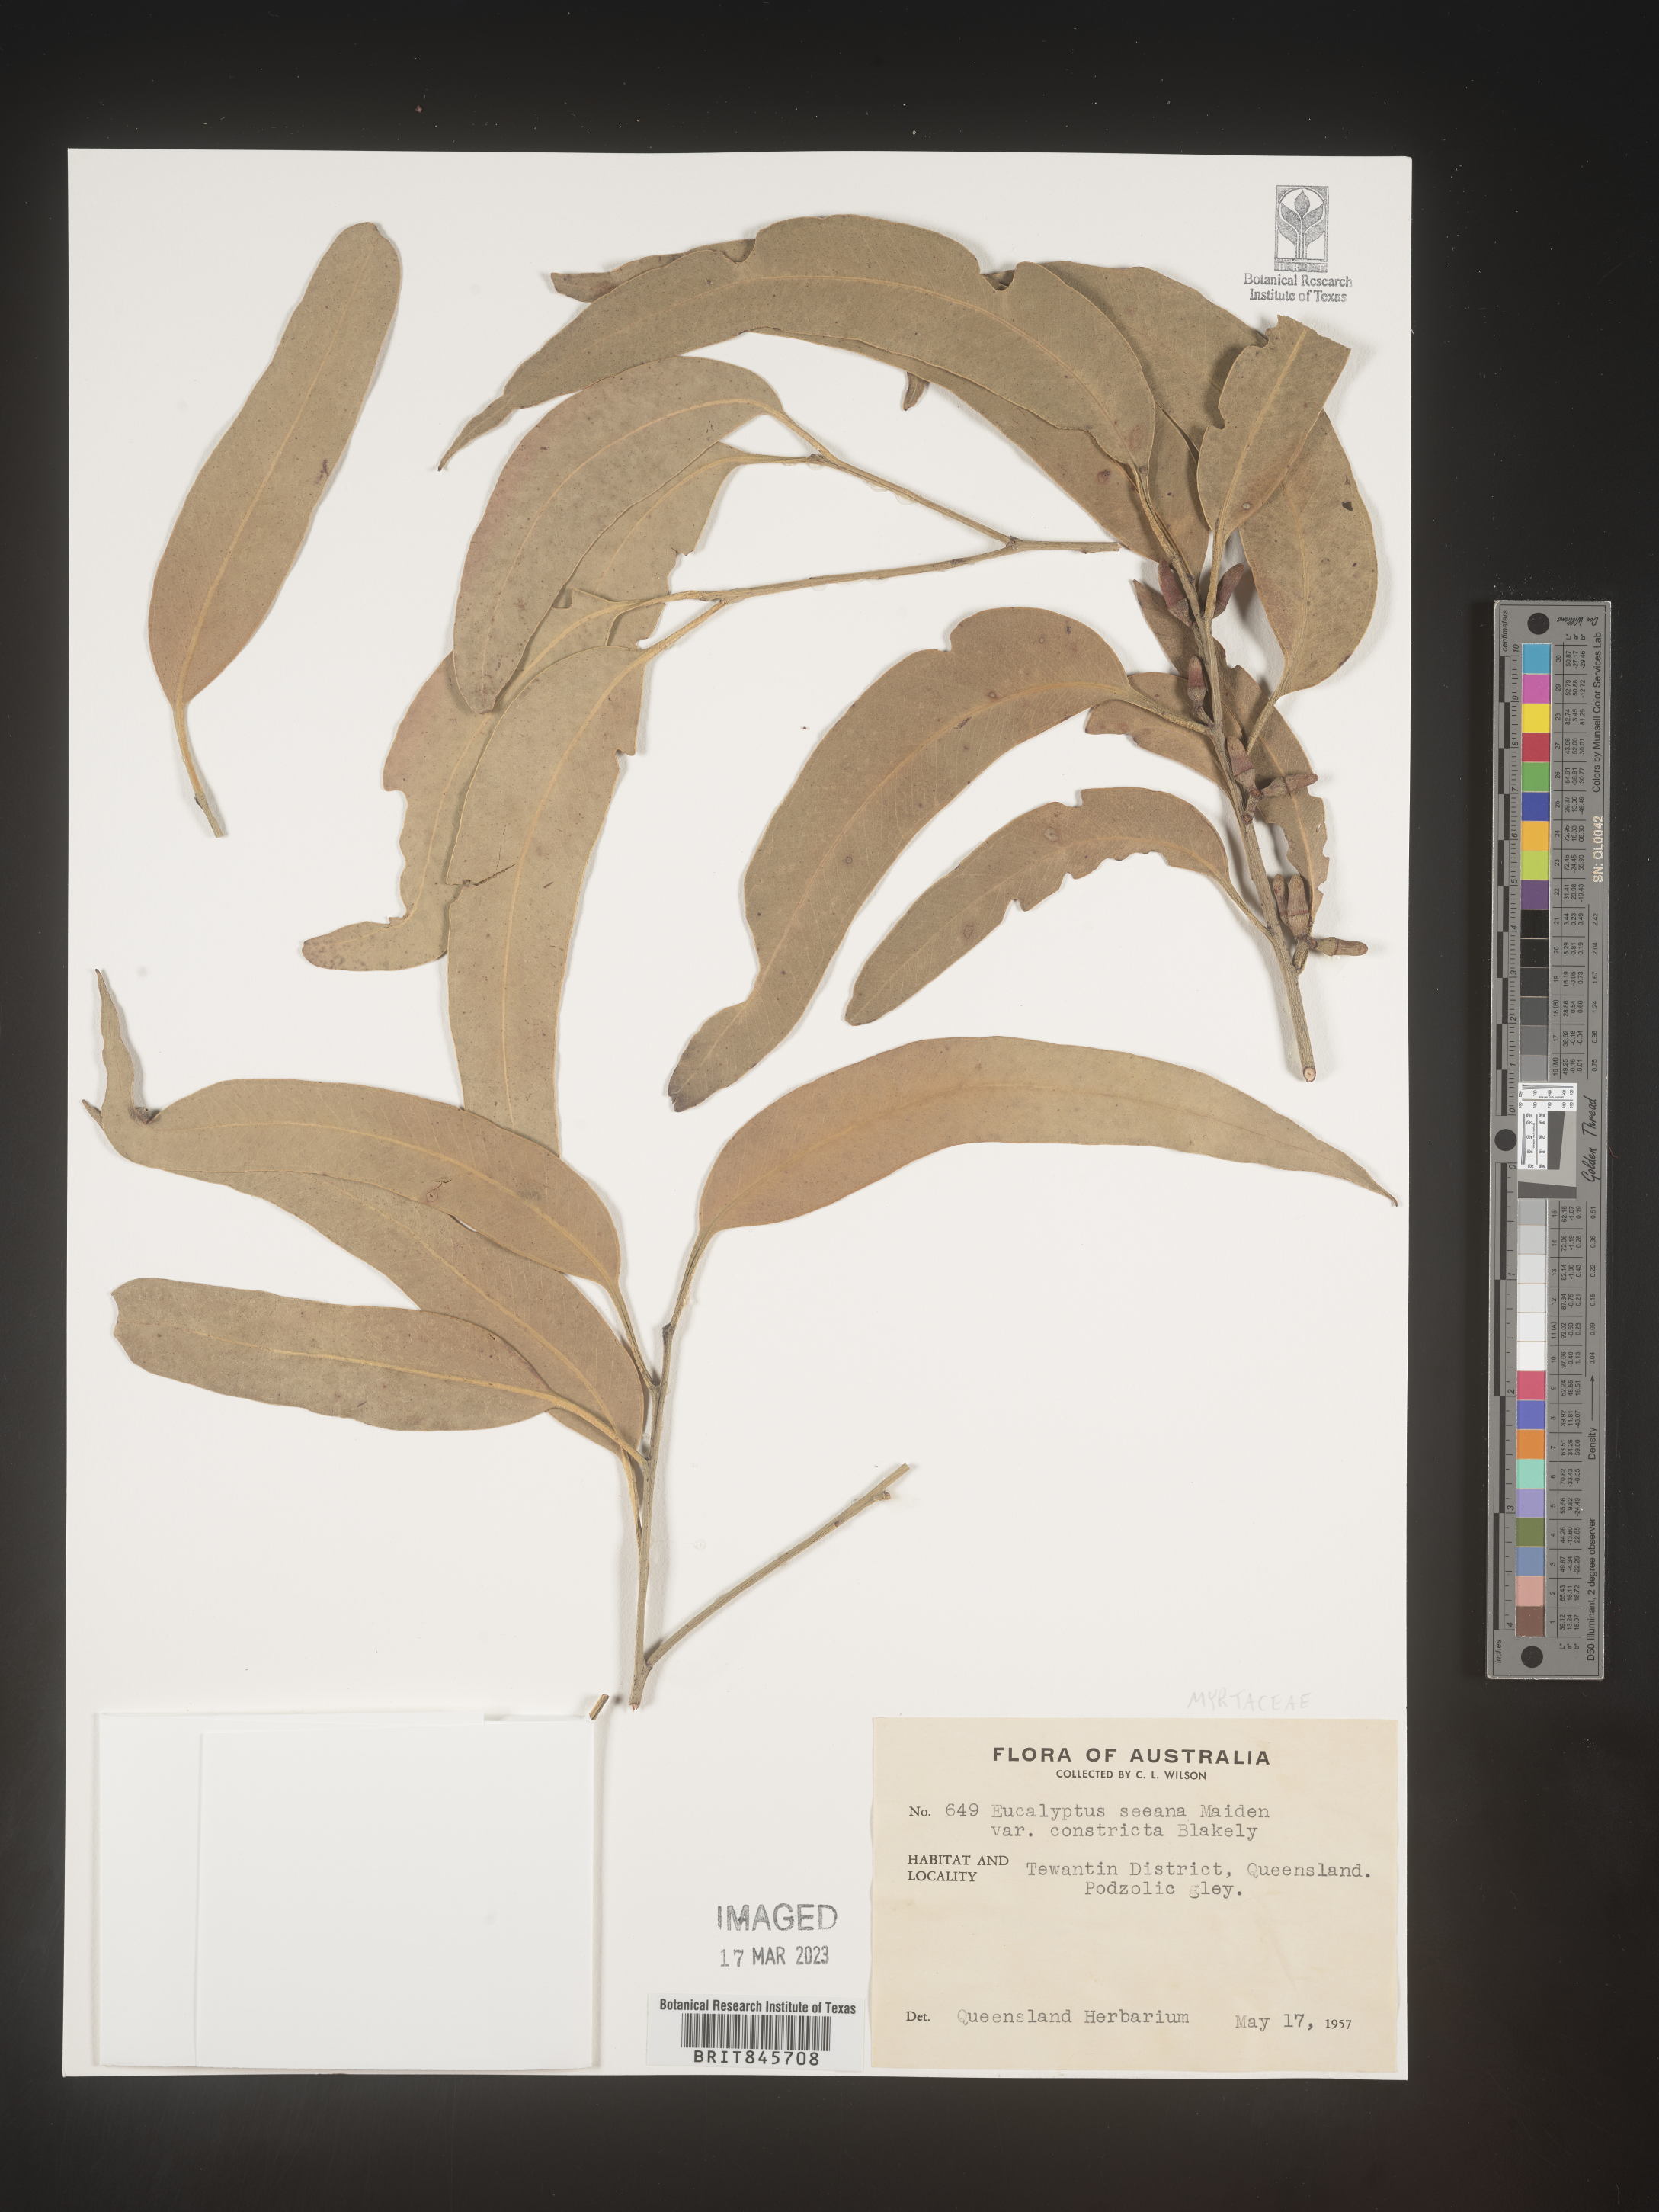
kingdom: Plantae
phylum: Tracheophyta
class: Magnoliopsida
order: Myrtales
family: Myrtaceae
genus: Eucalyptus
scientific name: Eucalyptus
